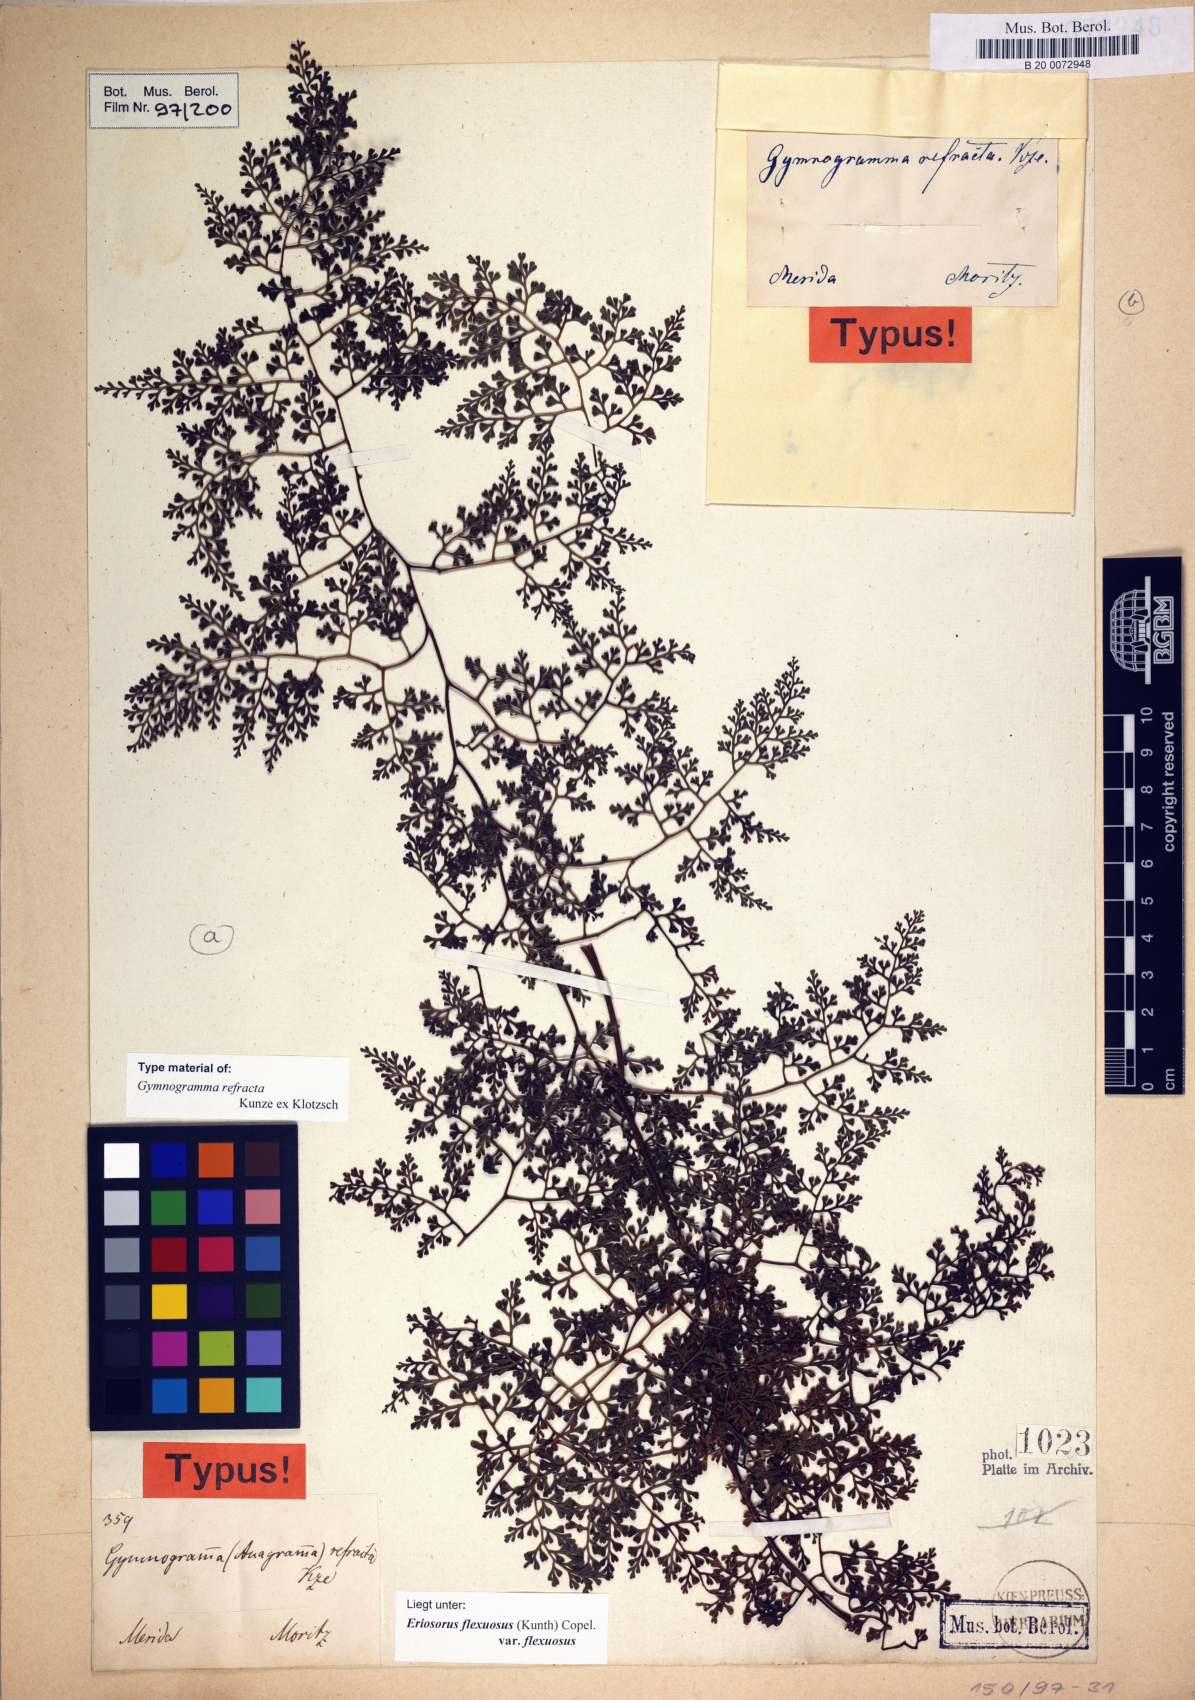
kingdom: Plantae
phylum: Tracheophyta
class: Polypodiopsida
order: Polypodiales
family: Pteridaceae
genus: Jamesonia
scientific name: Jamesonia flexuosa
